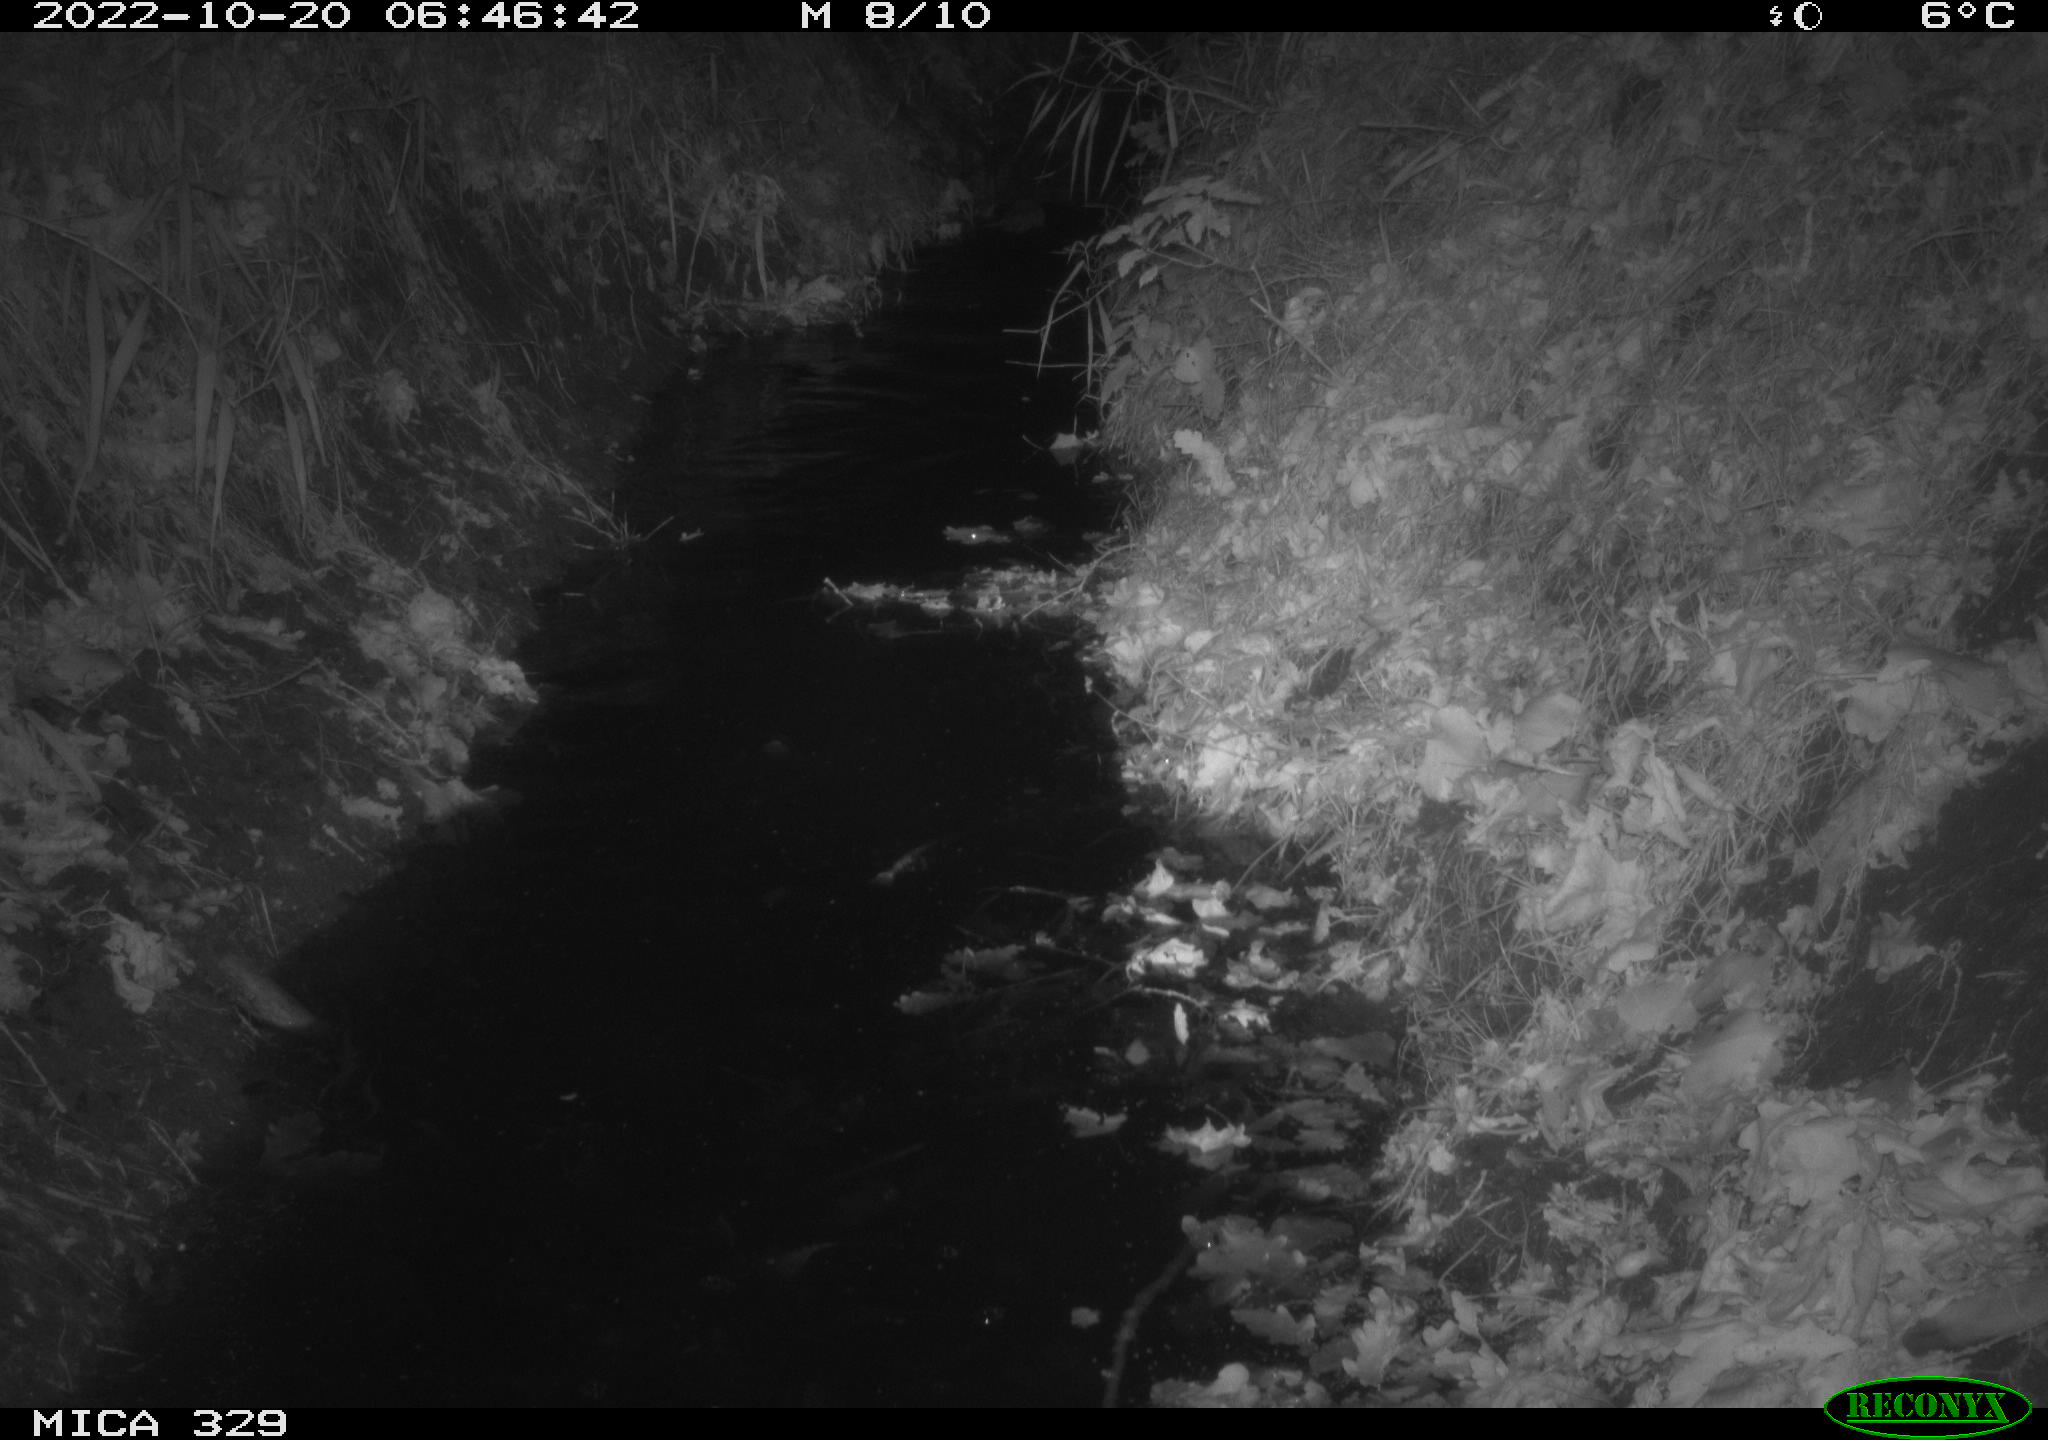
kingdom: Animalia
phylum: Chordata
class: Mammalia
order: Rodentia
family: Cricetidae
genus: Ondatra
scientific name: Ondatra zibethicus
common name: Muskrat
